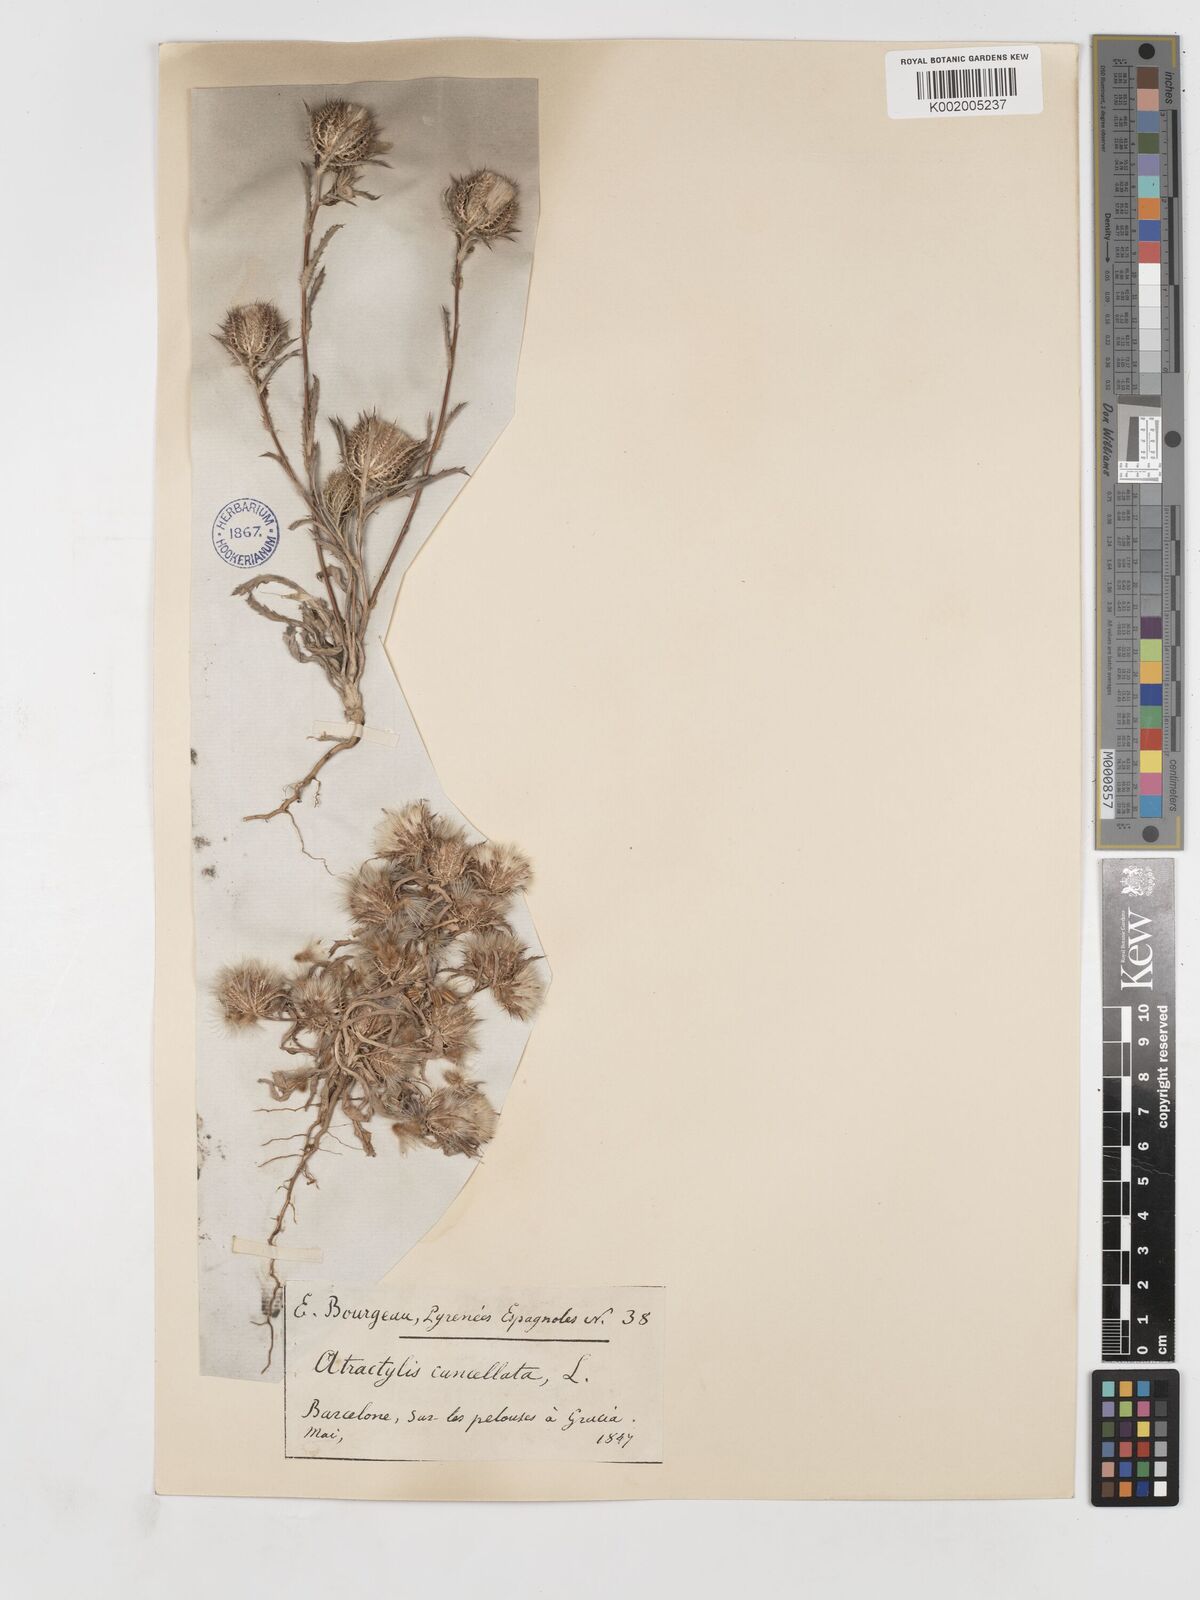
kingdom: Plantae
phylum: Tracheophyta
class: Magnoliopsida
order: Asterales
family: Asteraceae
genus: Atractylis
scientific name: Atractylis cancellata
